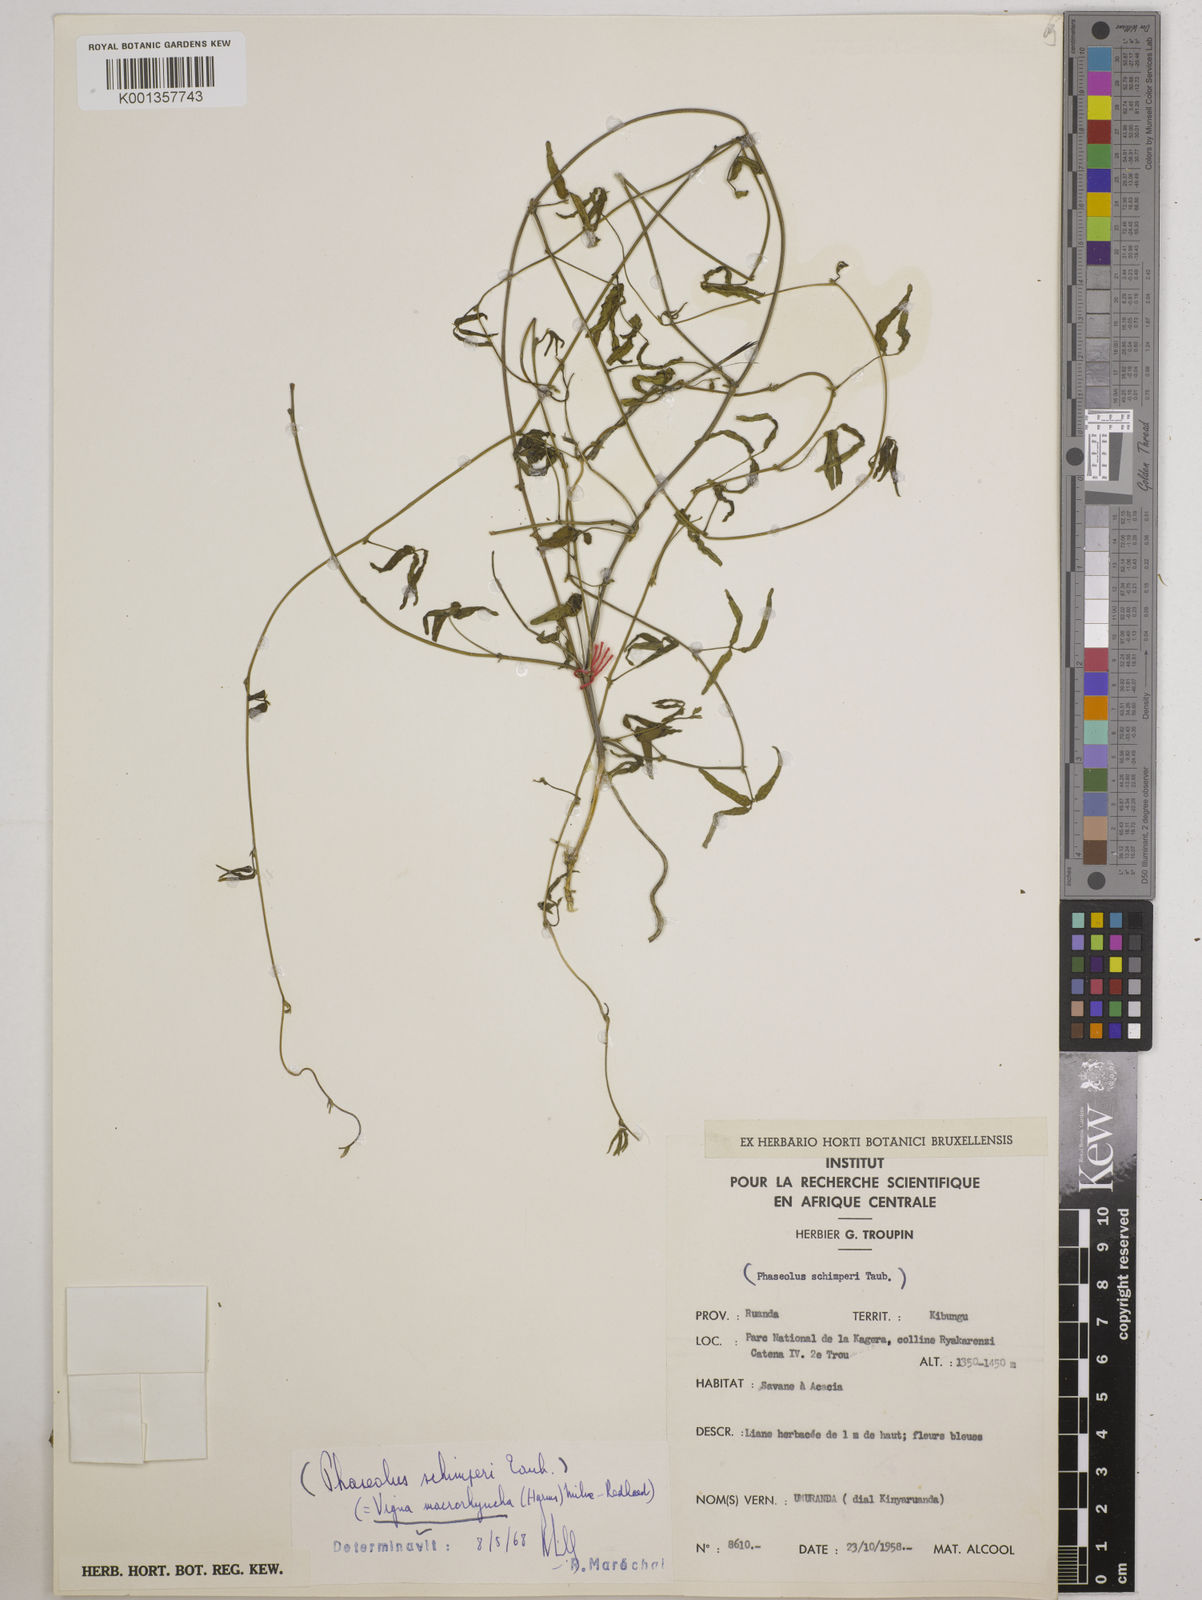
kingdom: Plantae
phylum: Tracheophyta
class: Magnoliopsida
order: Fabales
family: Fabaceae
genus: Wajira
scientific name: Wajira grahamiana
